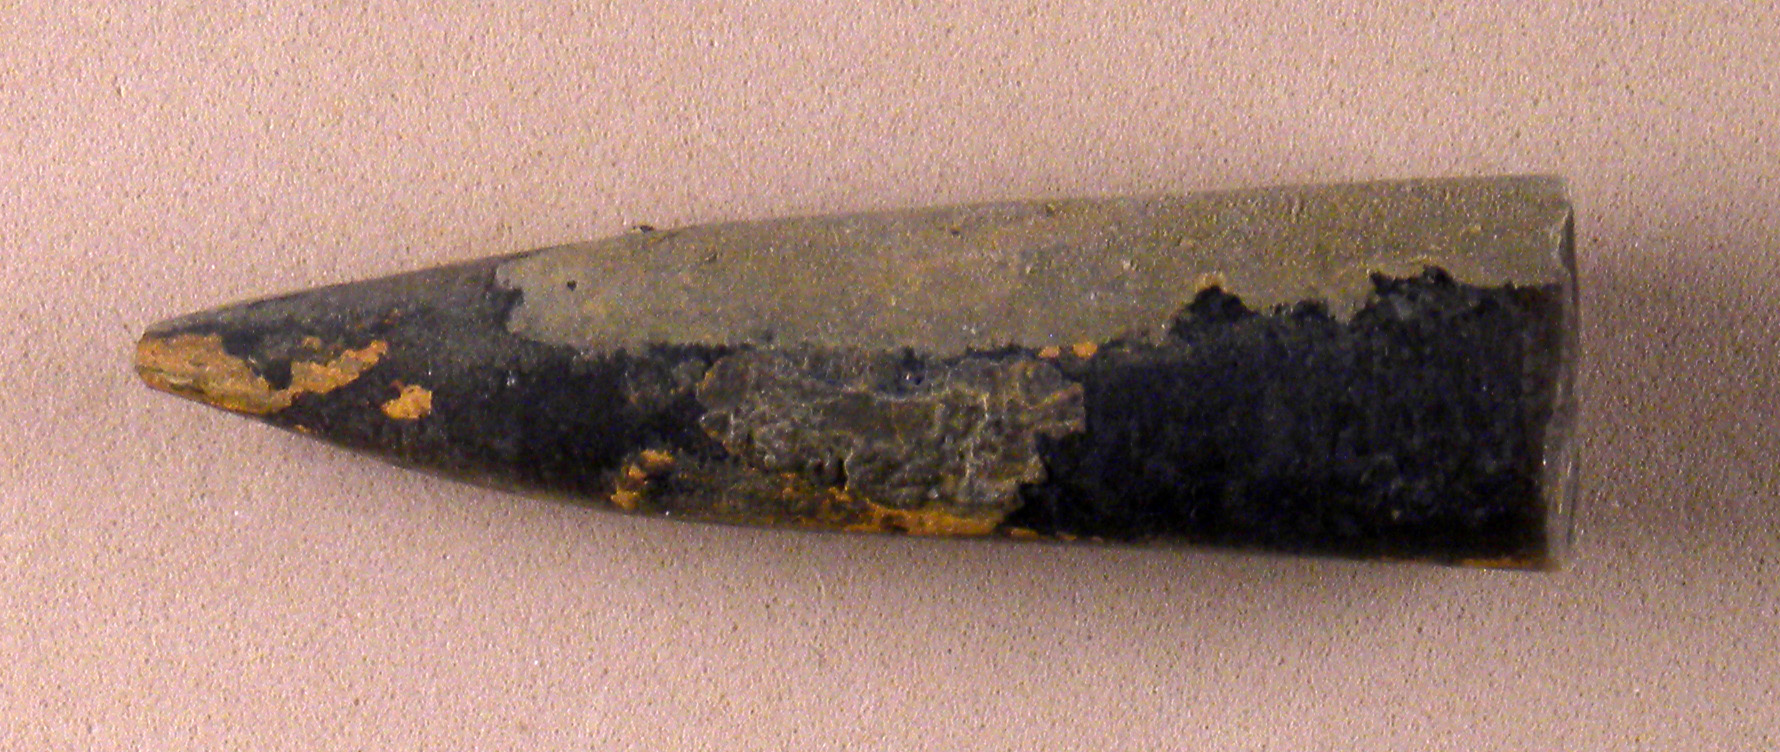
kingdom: Animalia
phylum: Mollusca
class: Cephalopoda
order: Belemnitida
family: Megateuthididae
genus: Acrocoelites
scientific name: Acrocoelites tripartitus
